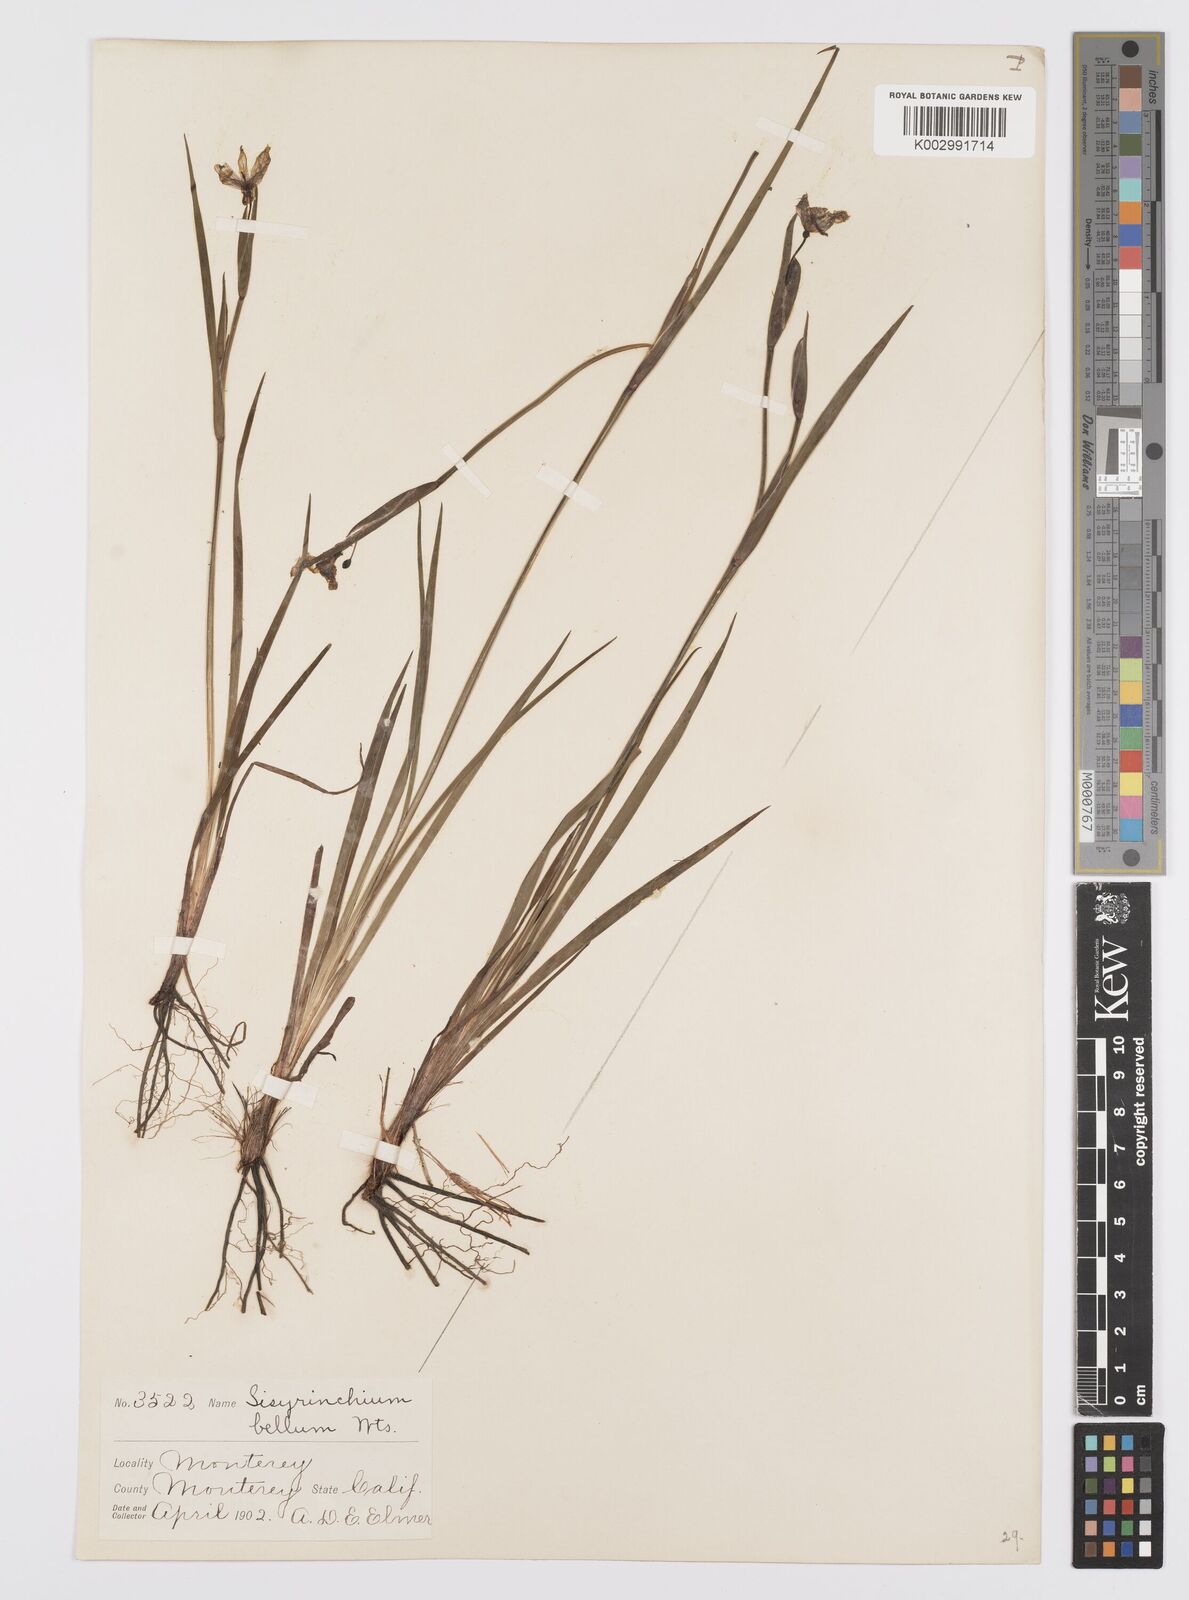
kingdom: Plantae
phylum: Tracheophyta
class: Liliopsida
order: Asparagales
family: Iridaceae
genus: Sisyrinchium
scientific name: Sisyrinchium bellum
